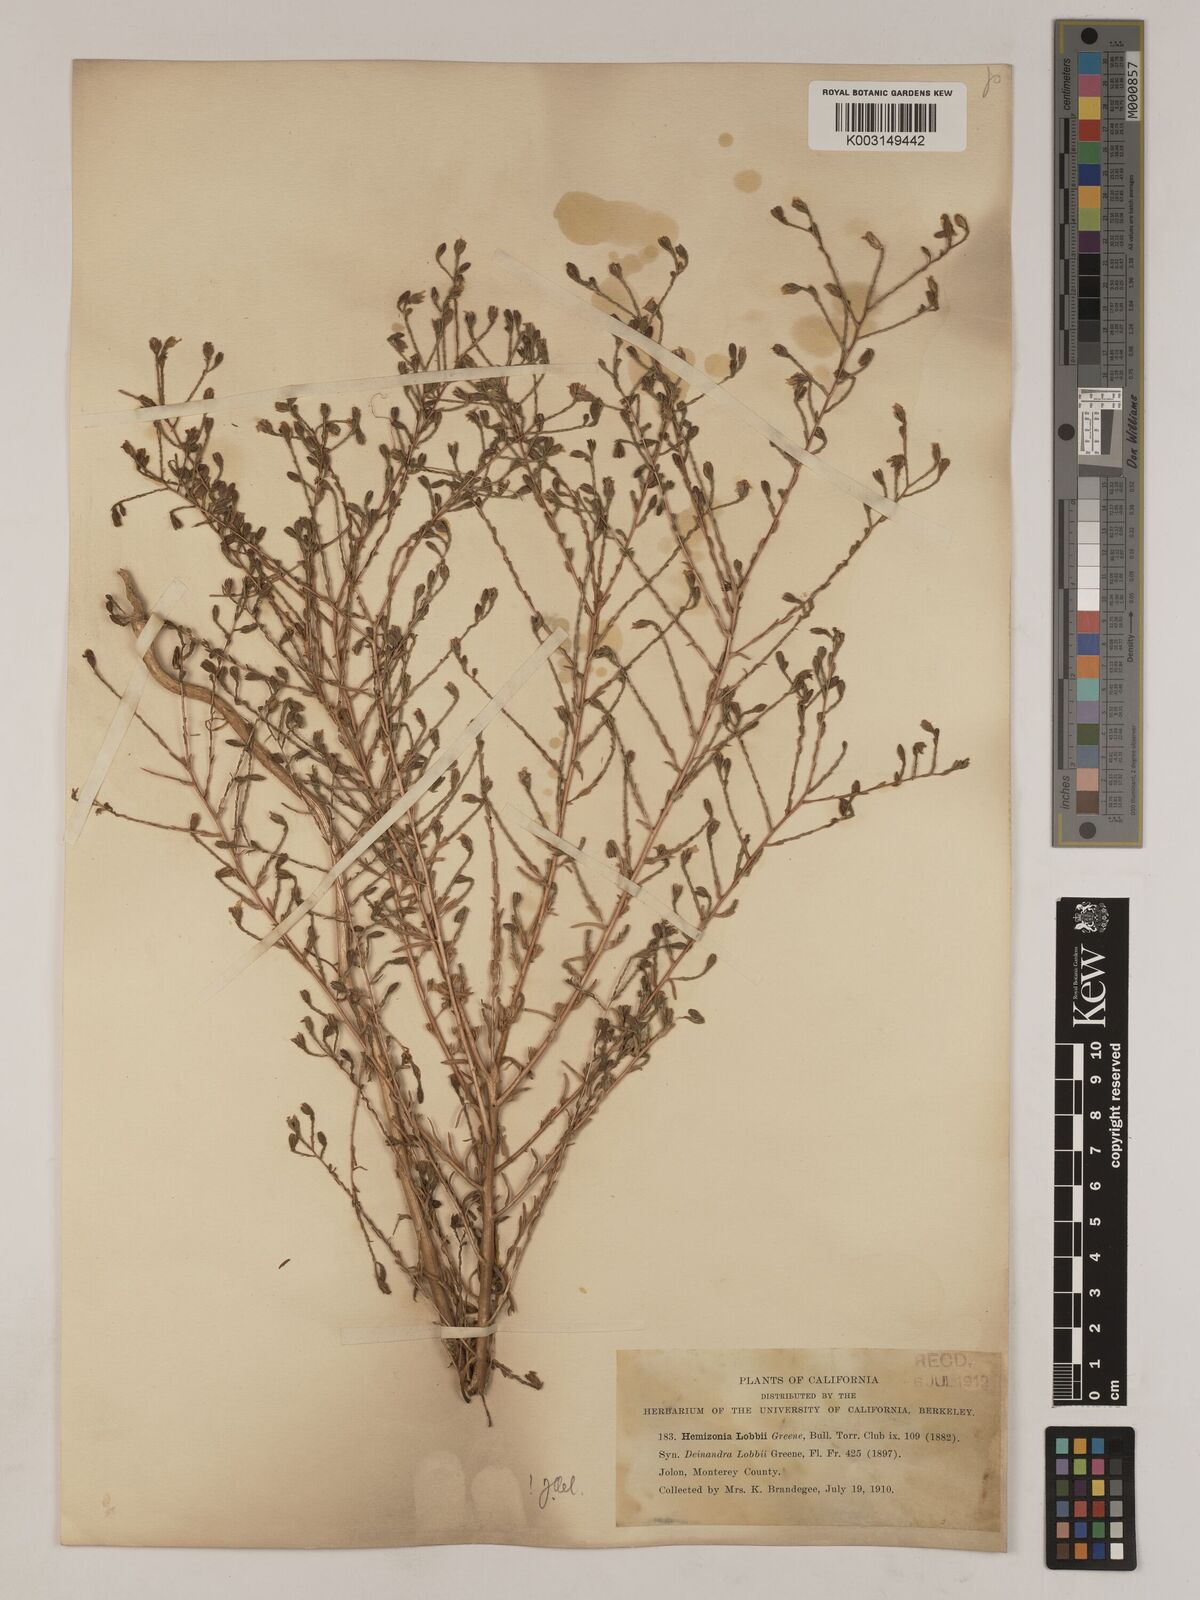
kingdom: Plantae
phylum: Tracheophyta
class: Magnoliopsida
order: Asterales
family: Asteraceae
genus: Deinandra
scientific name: Deinandra lobbii
